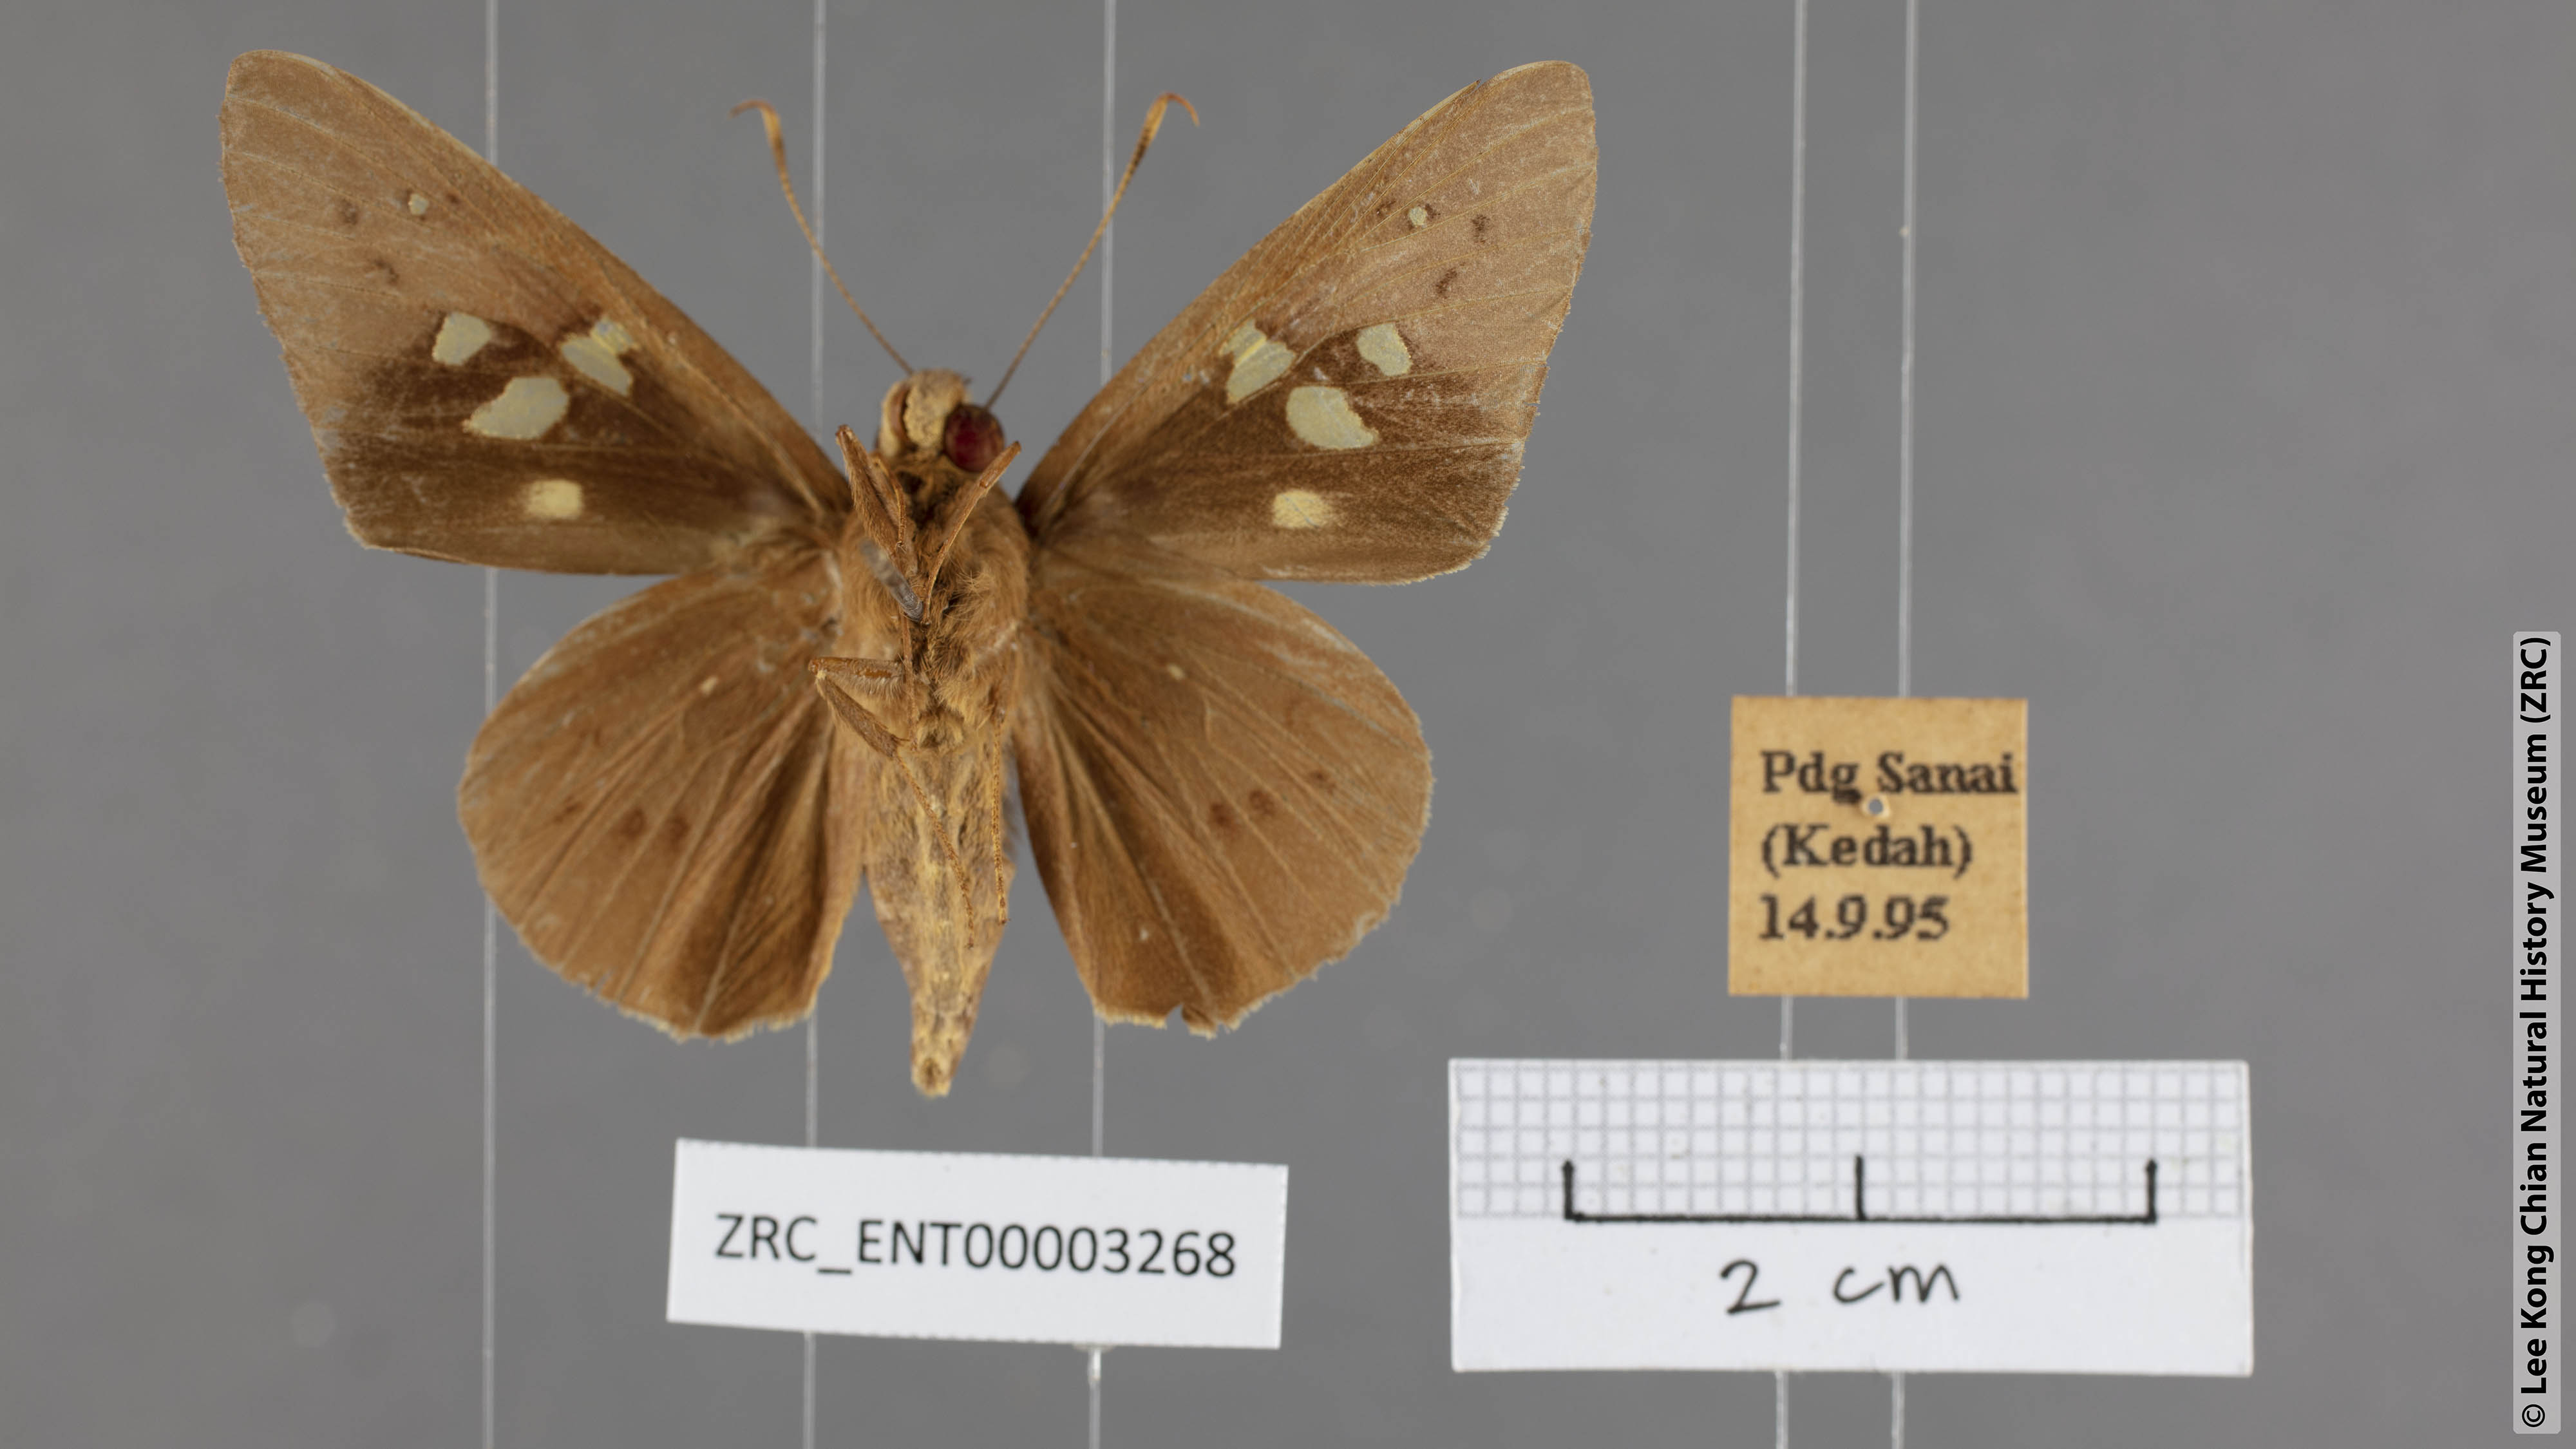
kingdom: Animalia
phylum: Arthropoda
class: Insecta
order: Lepidoptera
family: Hesperiidae
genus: Hidari
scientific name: Hidari irava
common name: Coconut skipper
